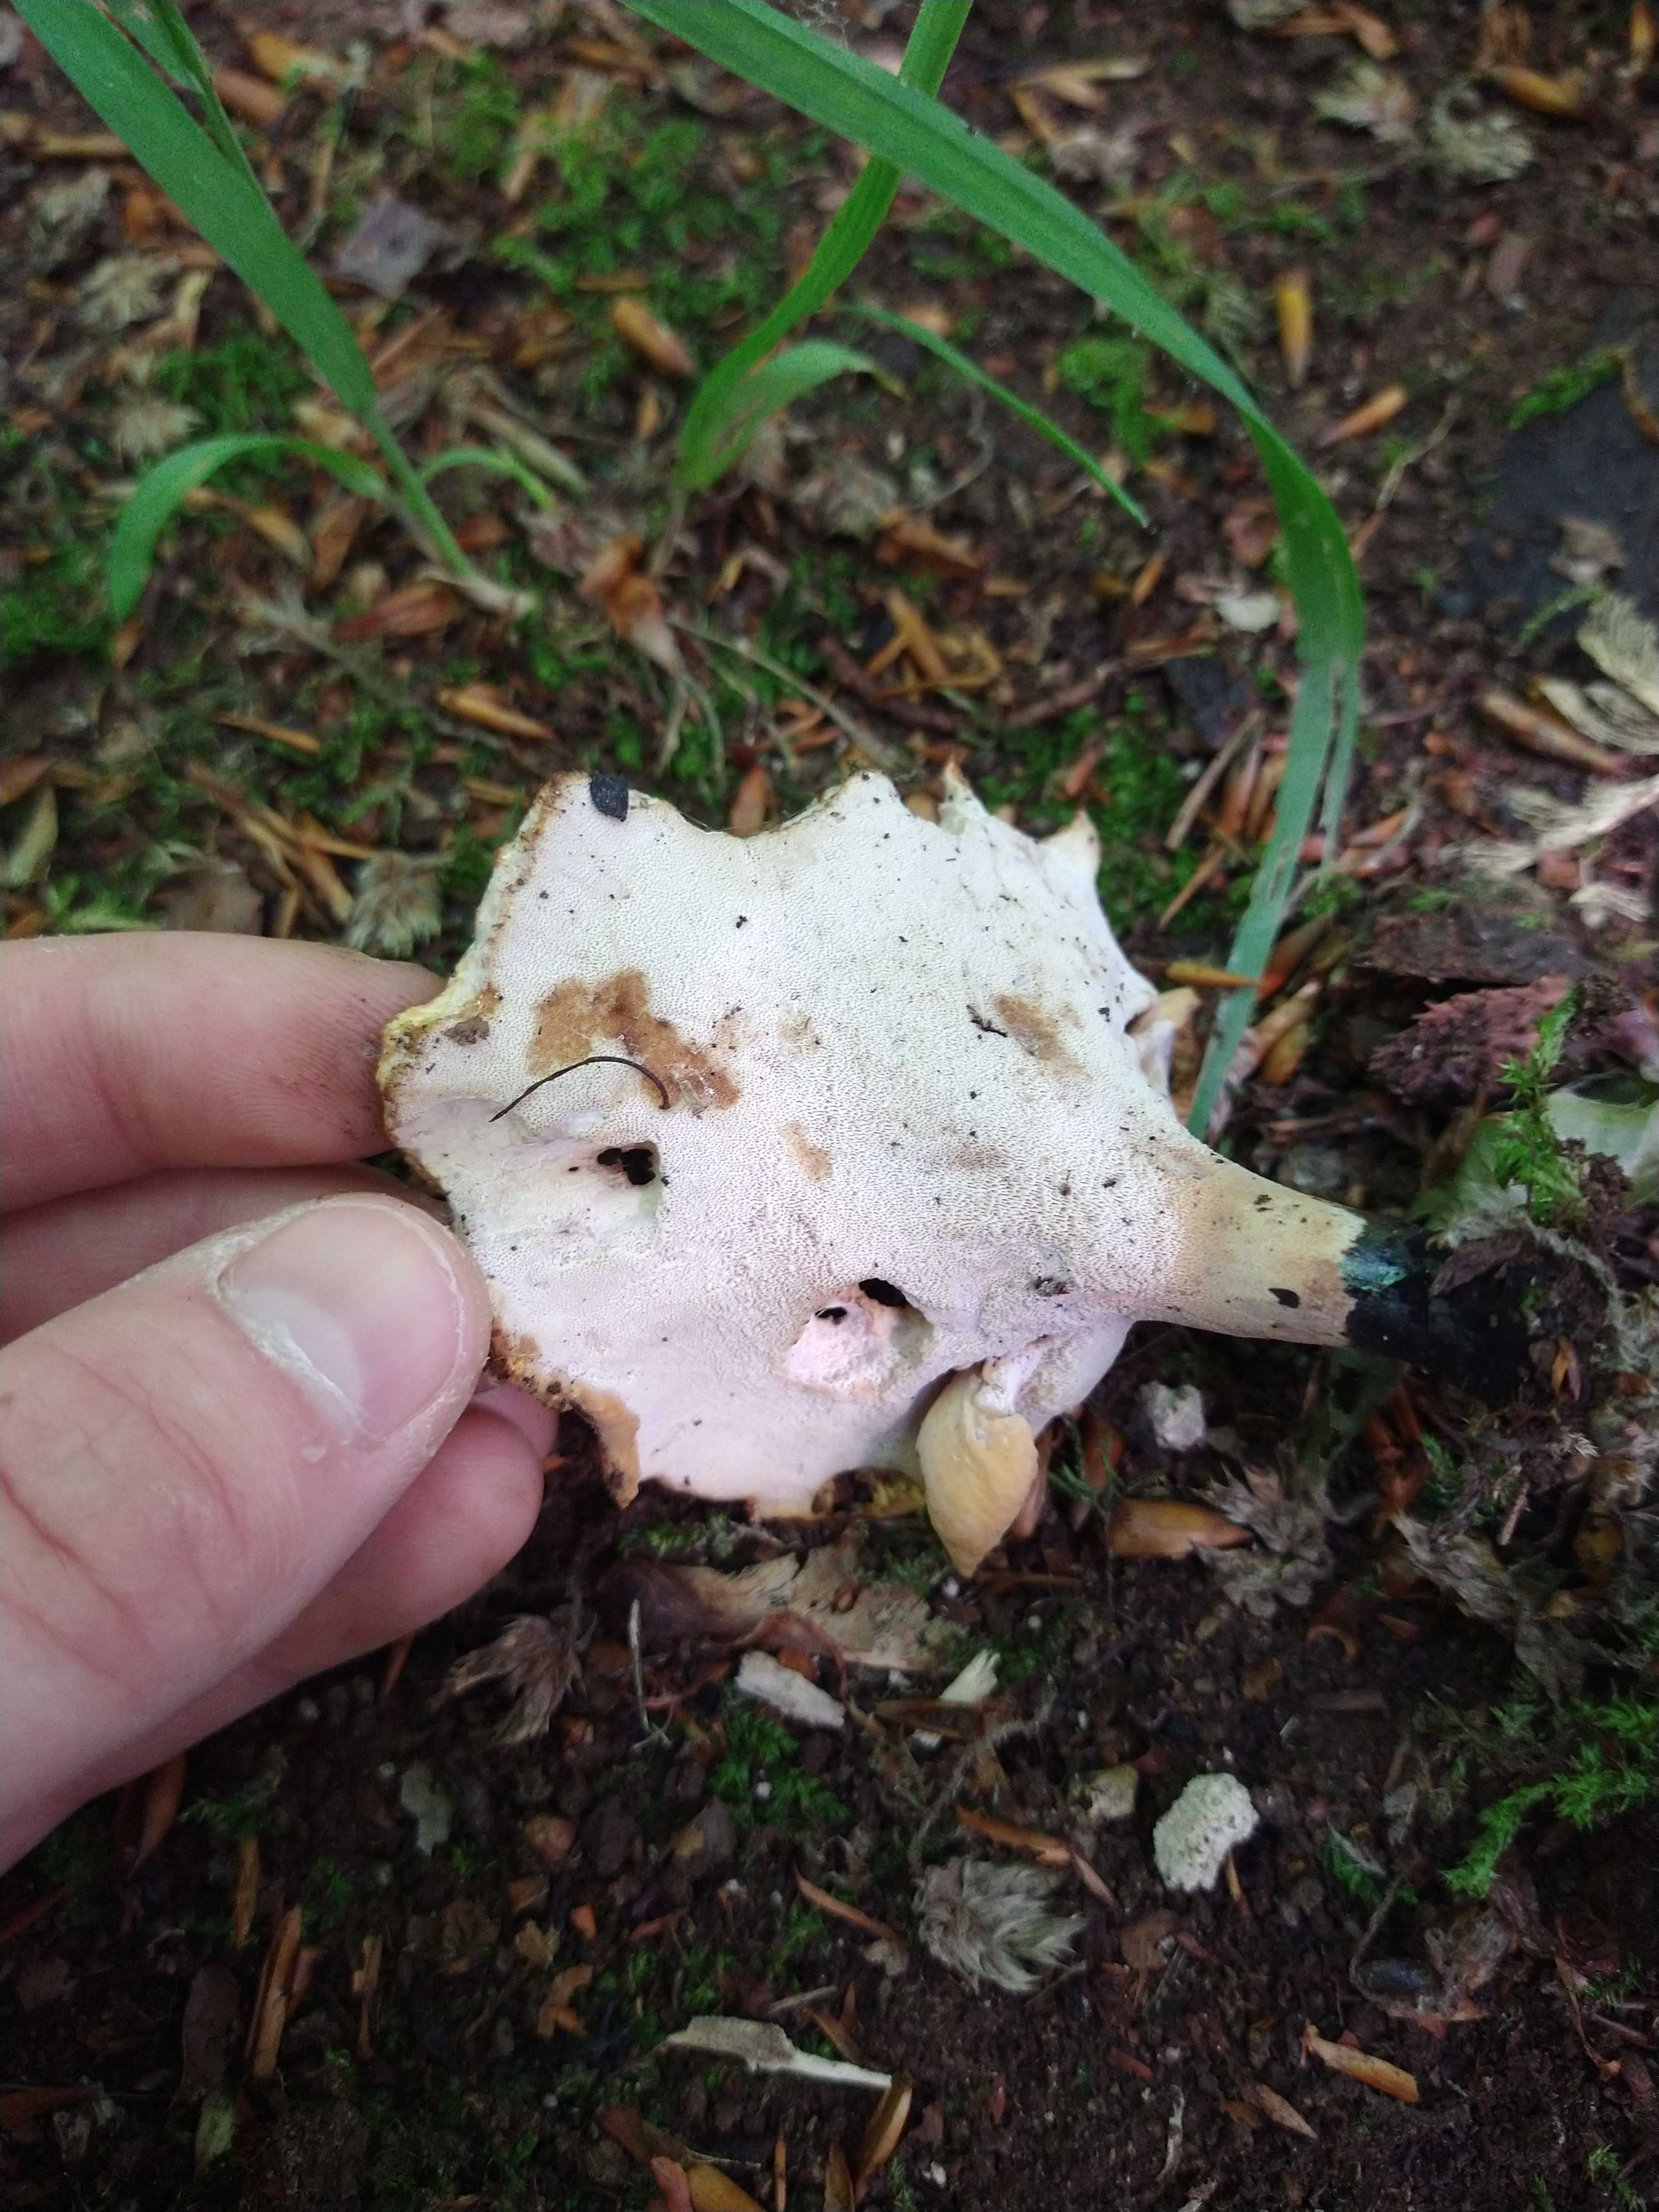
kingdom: Fungi
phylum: Basidiomycota
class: Agaricomycetes
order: Polyporales
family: Polyporaceae
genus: Cerioporus
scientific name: Cerioporus varius
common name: foranderlig stilkporesvamp
